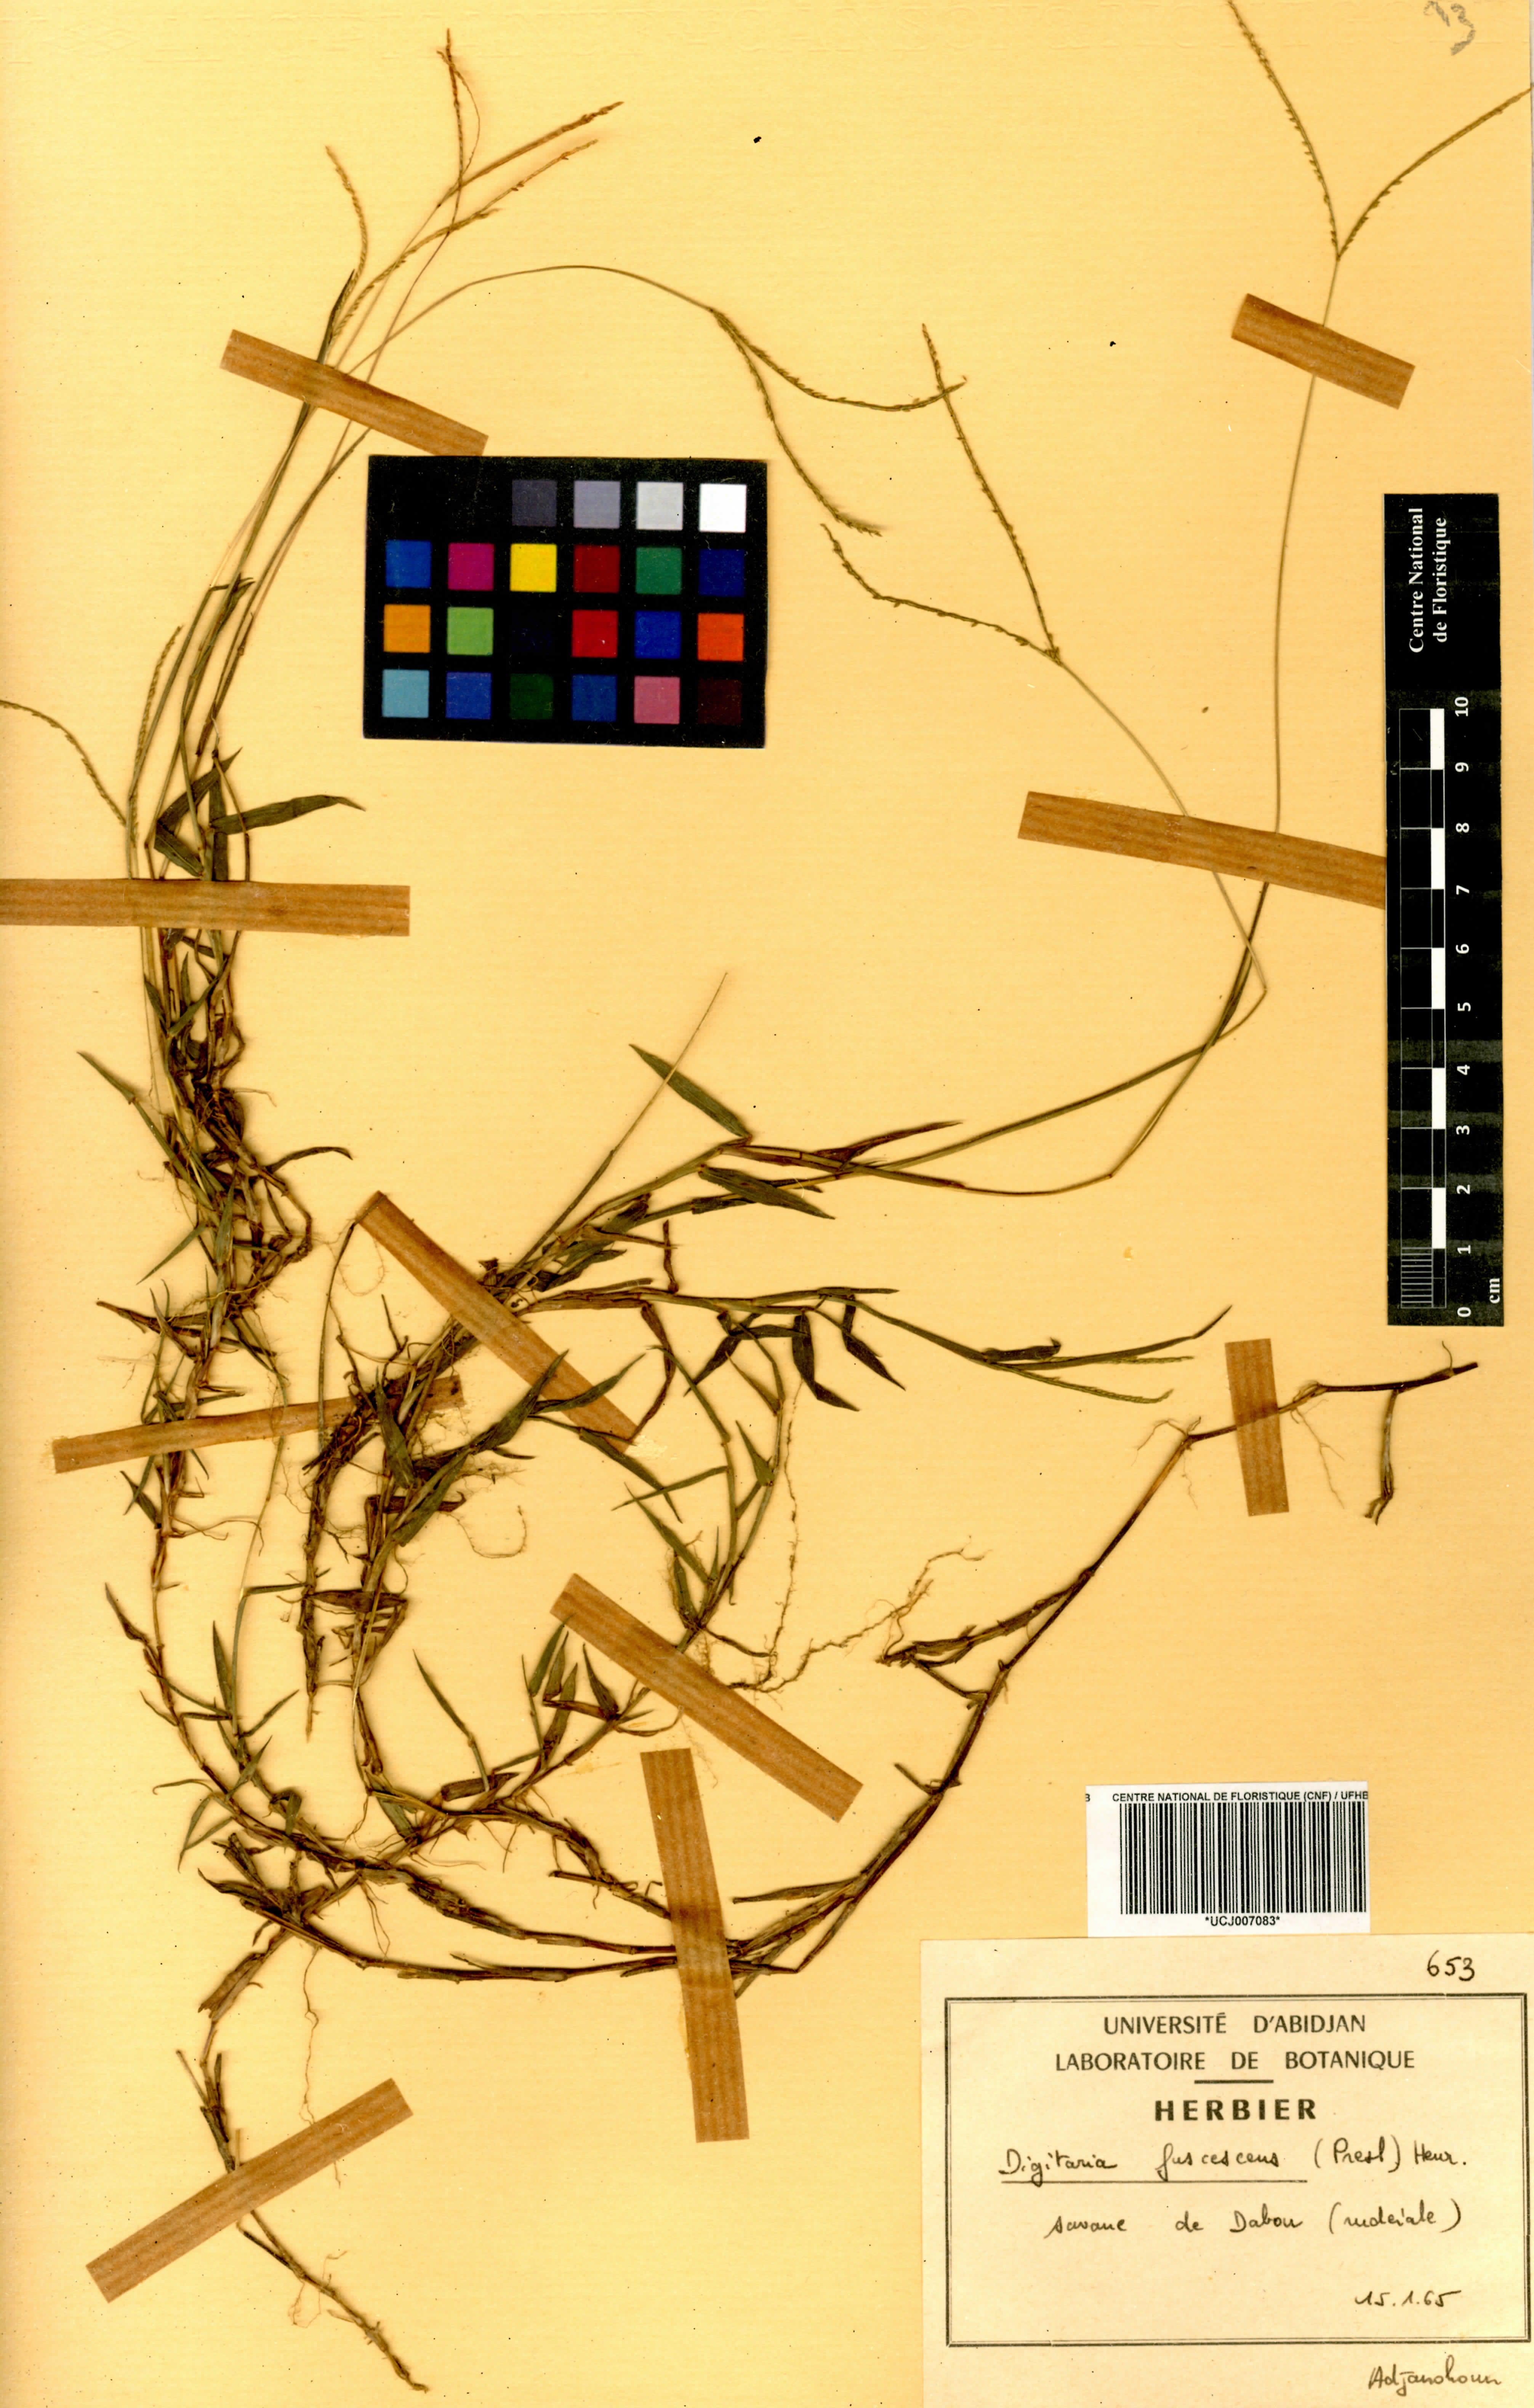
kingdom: Plantae
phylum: Tracheophyta
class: Liliopsida
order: Poales
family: Poaceae
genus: Digitaria
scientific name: Digitaria fuscescens
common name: Yellow crabgrass
